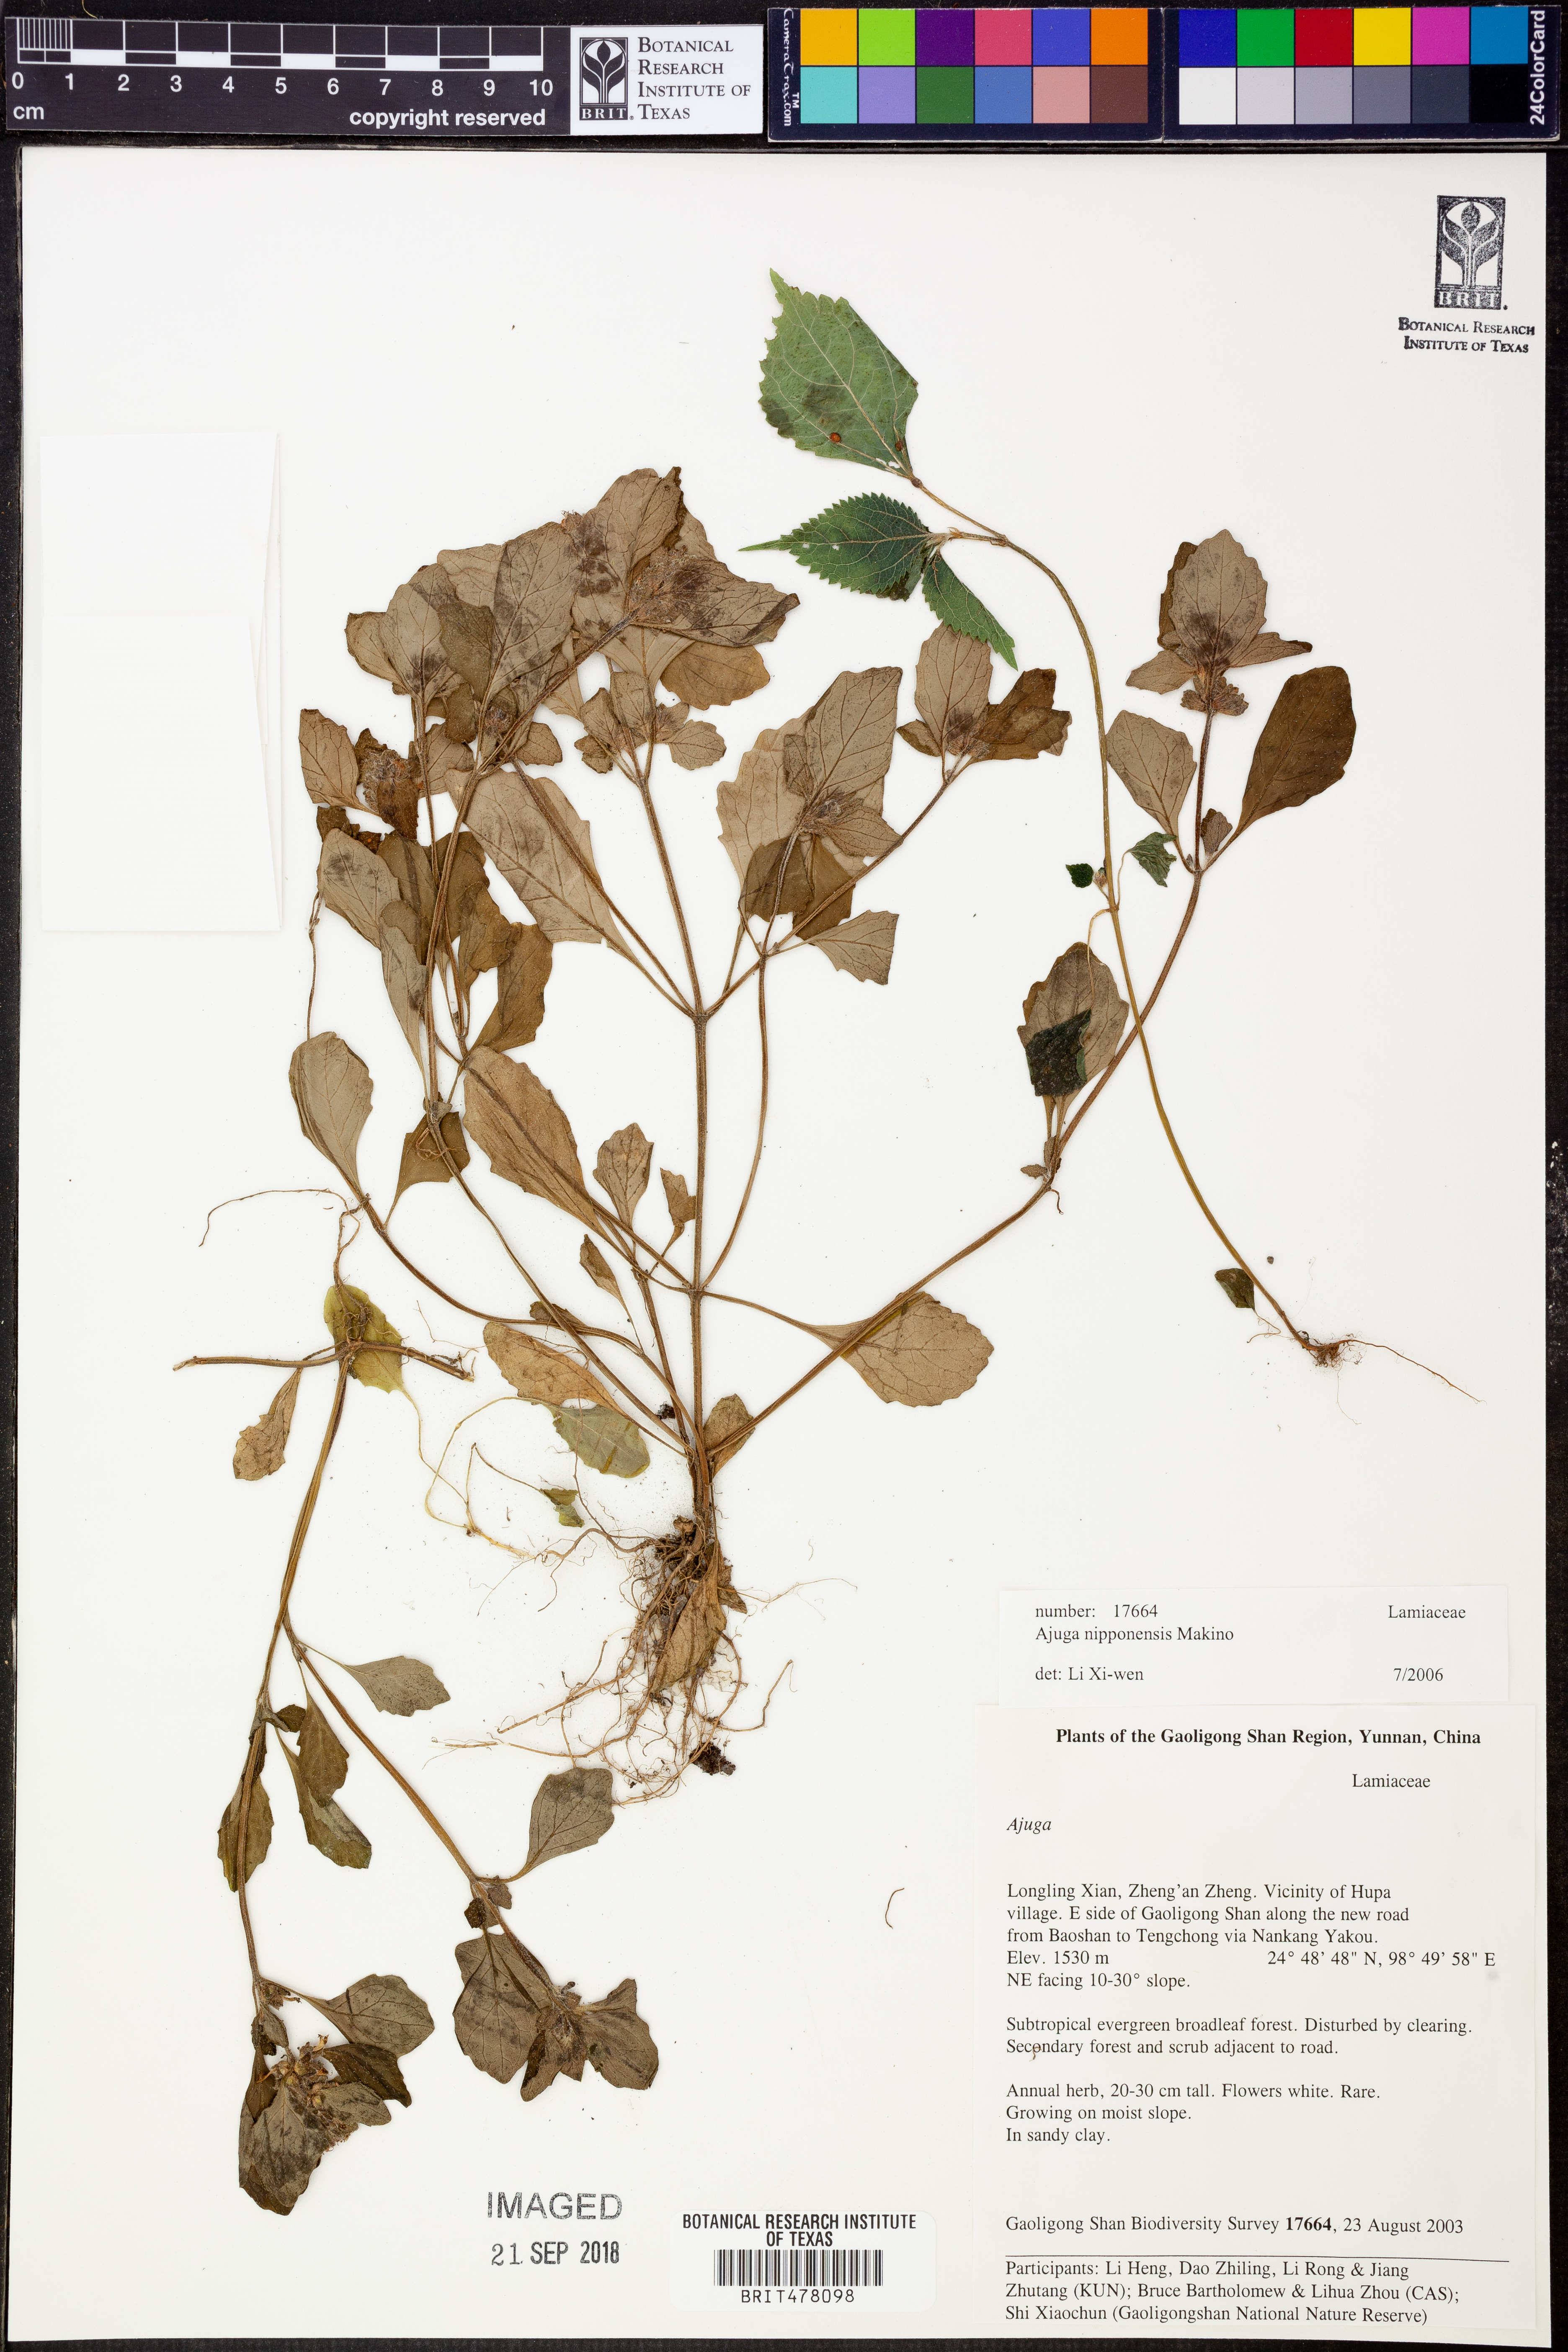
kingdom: Plantae
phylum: Tracheophyta
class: Magnoliopsida
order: Lamiales
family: Lamiaceae
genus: Ajuga
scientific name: Ajuga nipponensis
